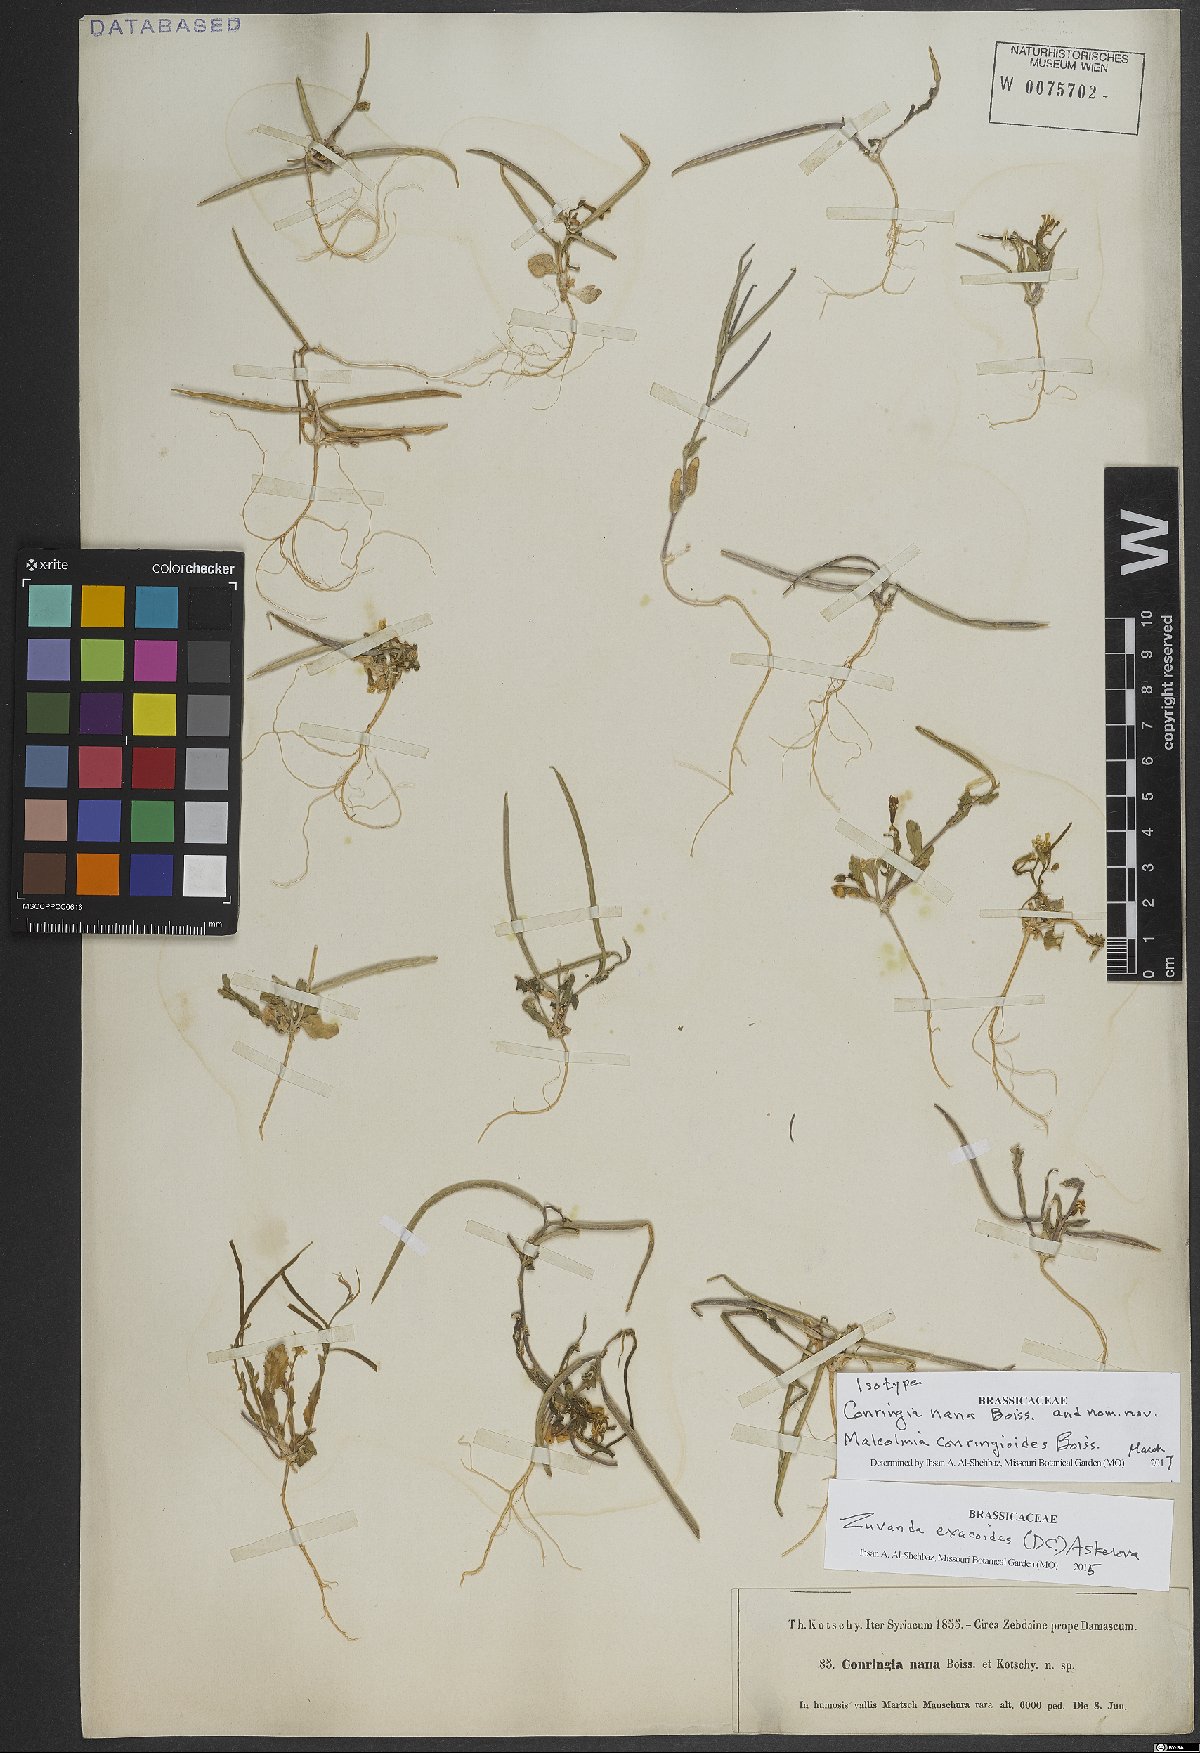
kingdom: Plantae
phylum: Tracheophyta
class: Magnoliopsida
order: Brassicales
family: Brassicaceae
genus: Zuvanda
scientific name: Zuvanda exacoides
